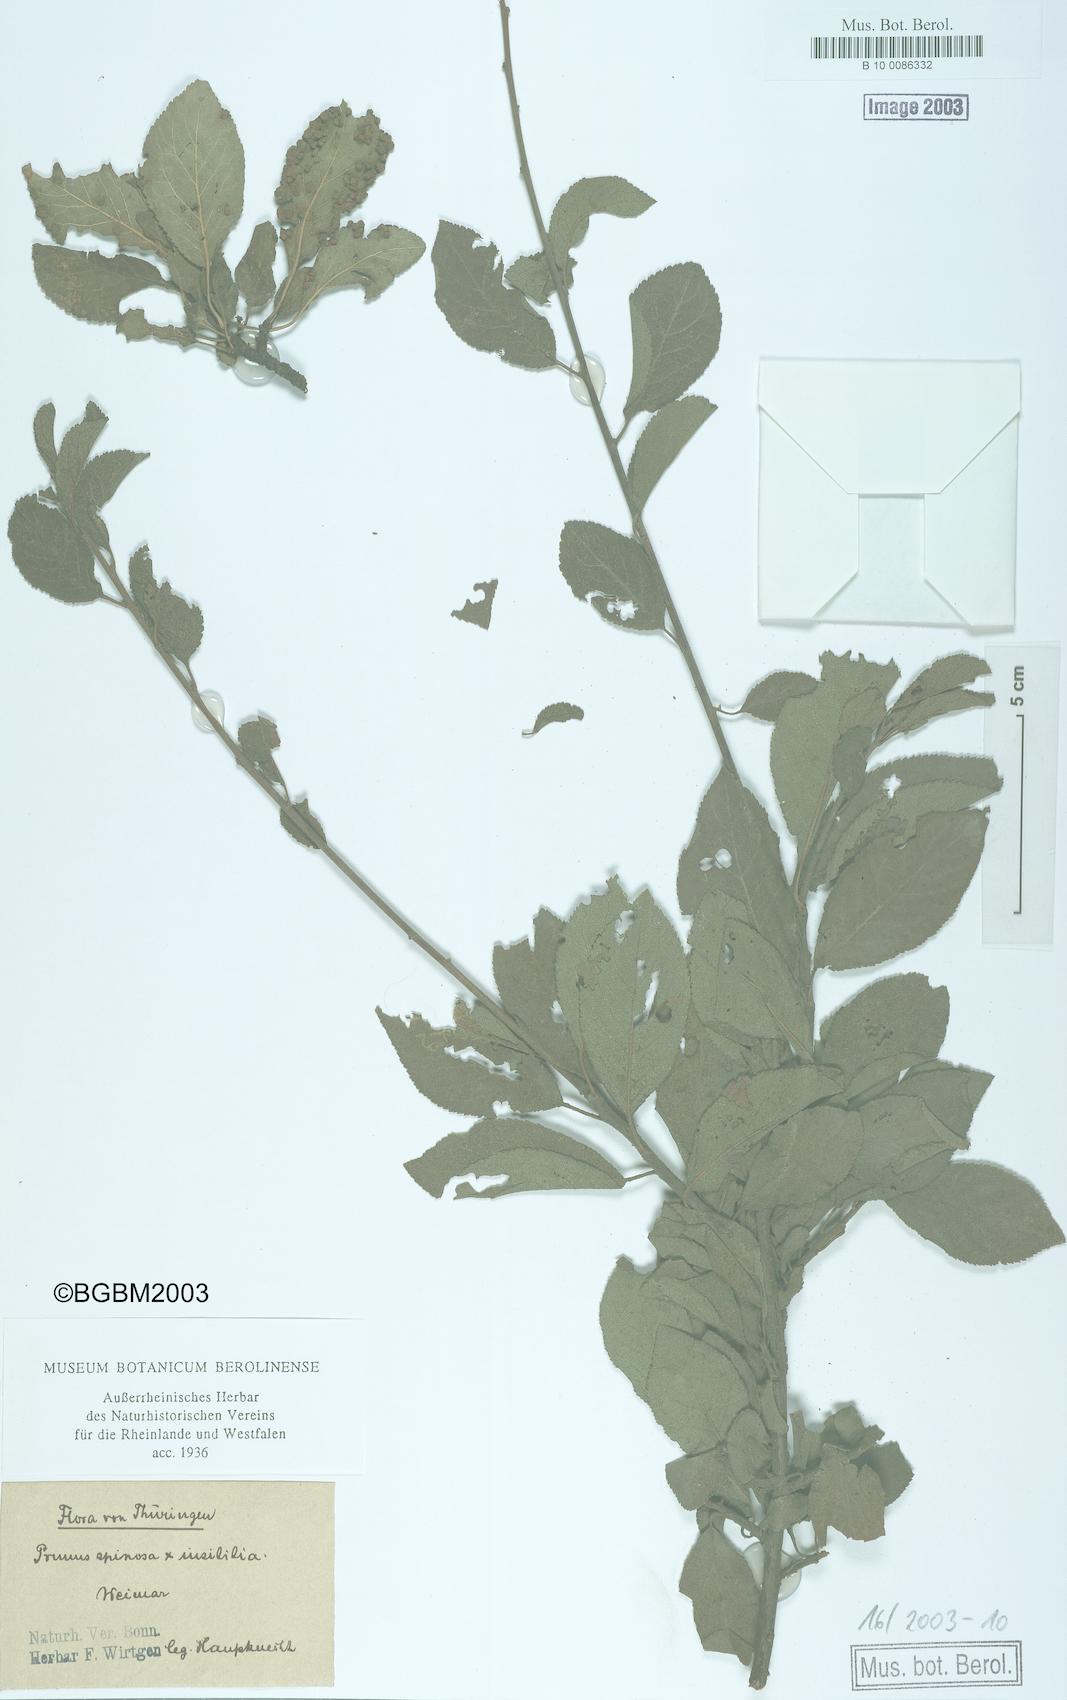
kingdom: Plantae
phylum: Tracheophyta
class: Magnoliopsida
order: Rosales
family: Rosaceae
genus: Prunus
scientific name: Prunus domestica
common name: Wild plum
